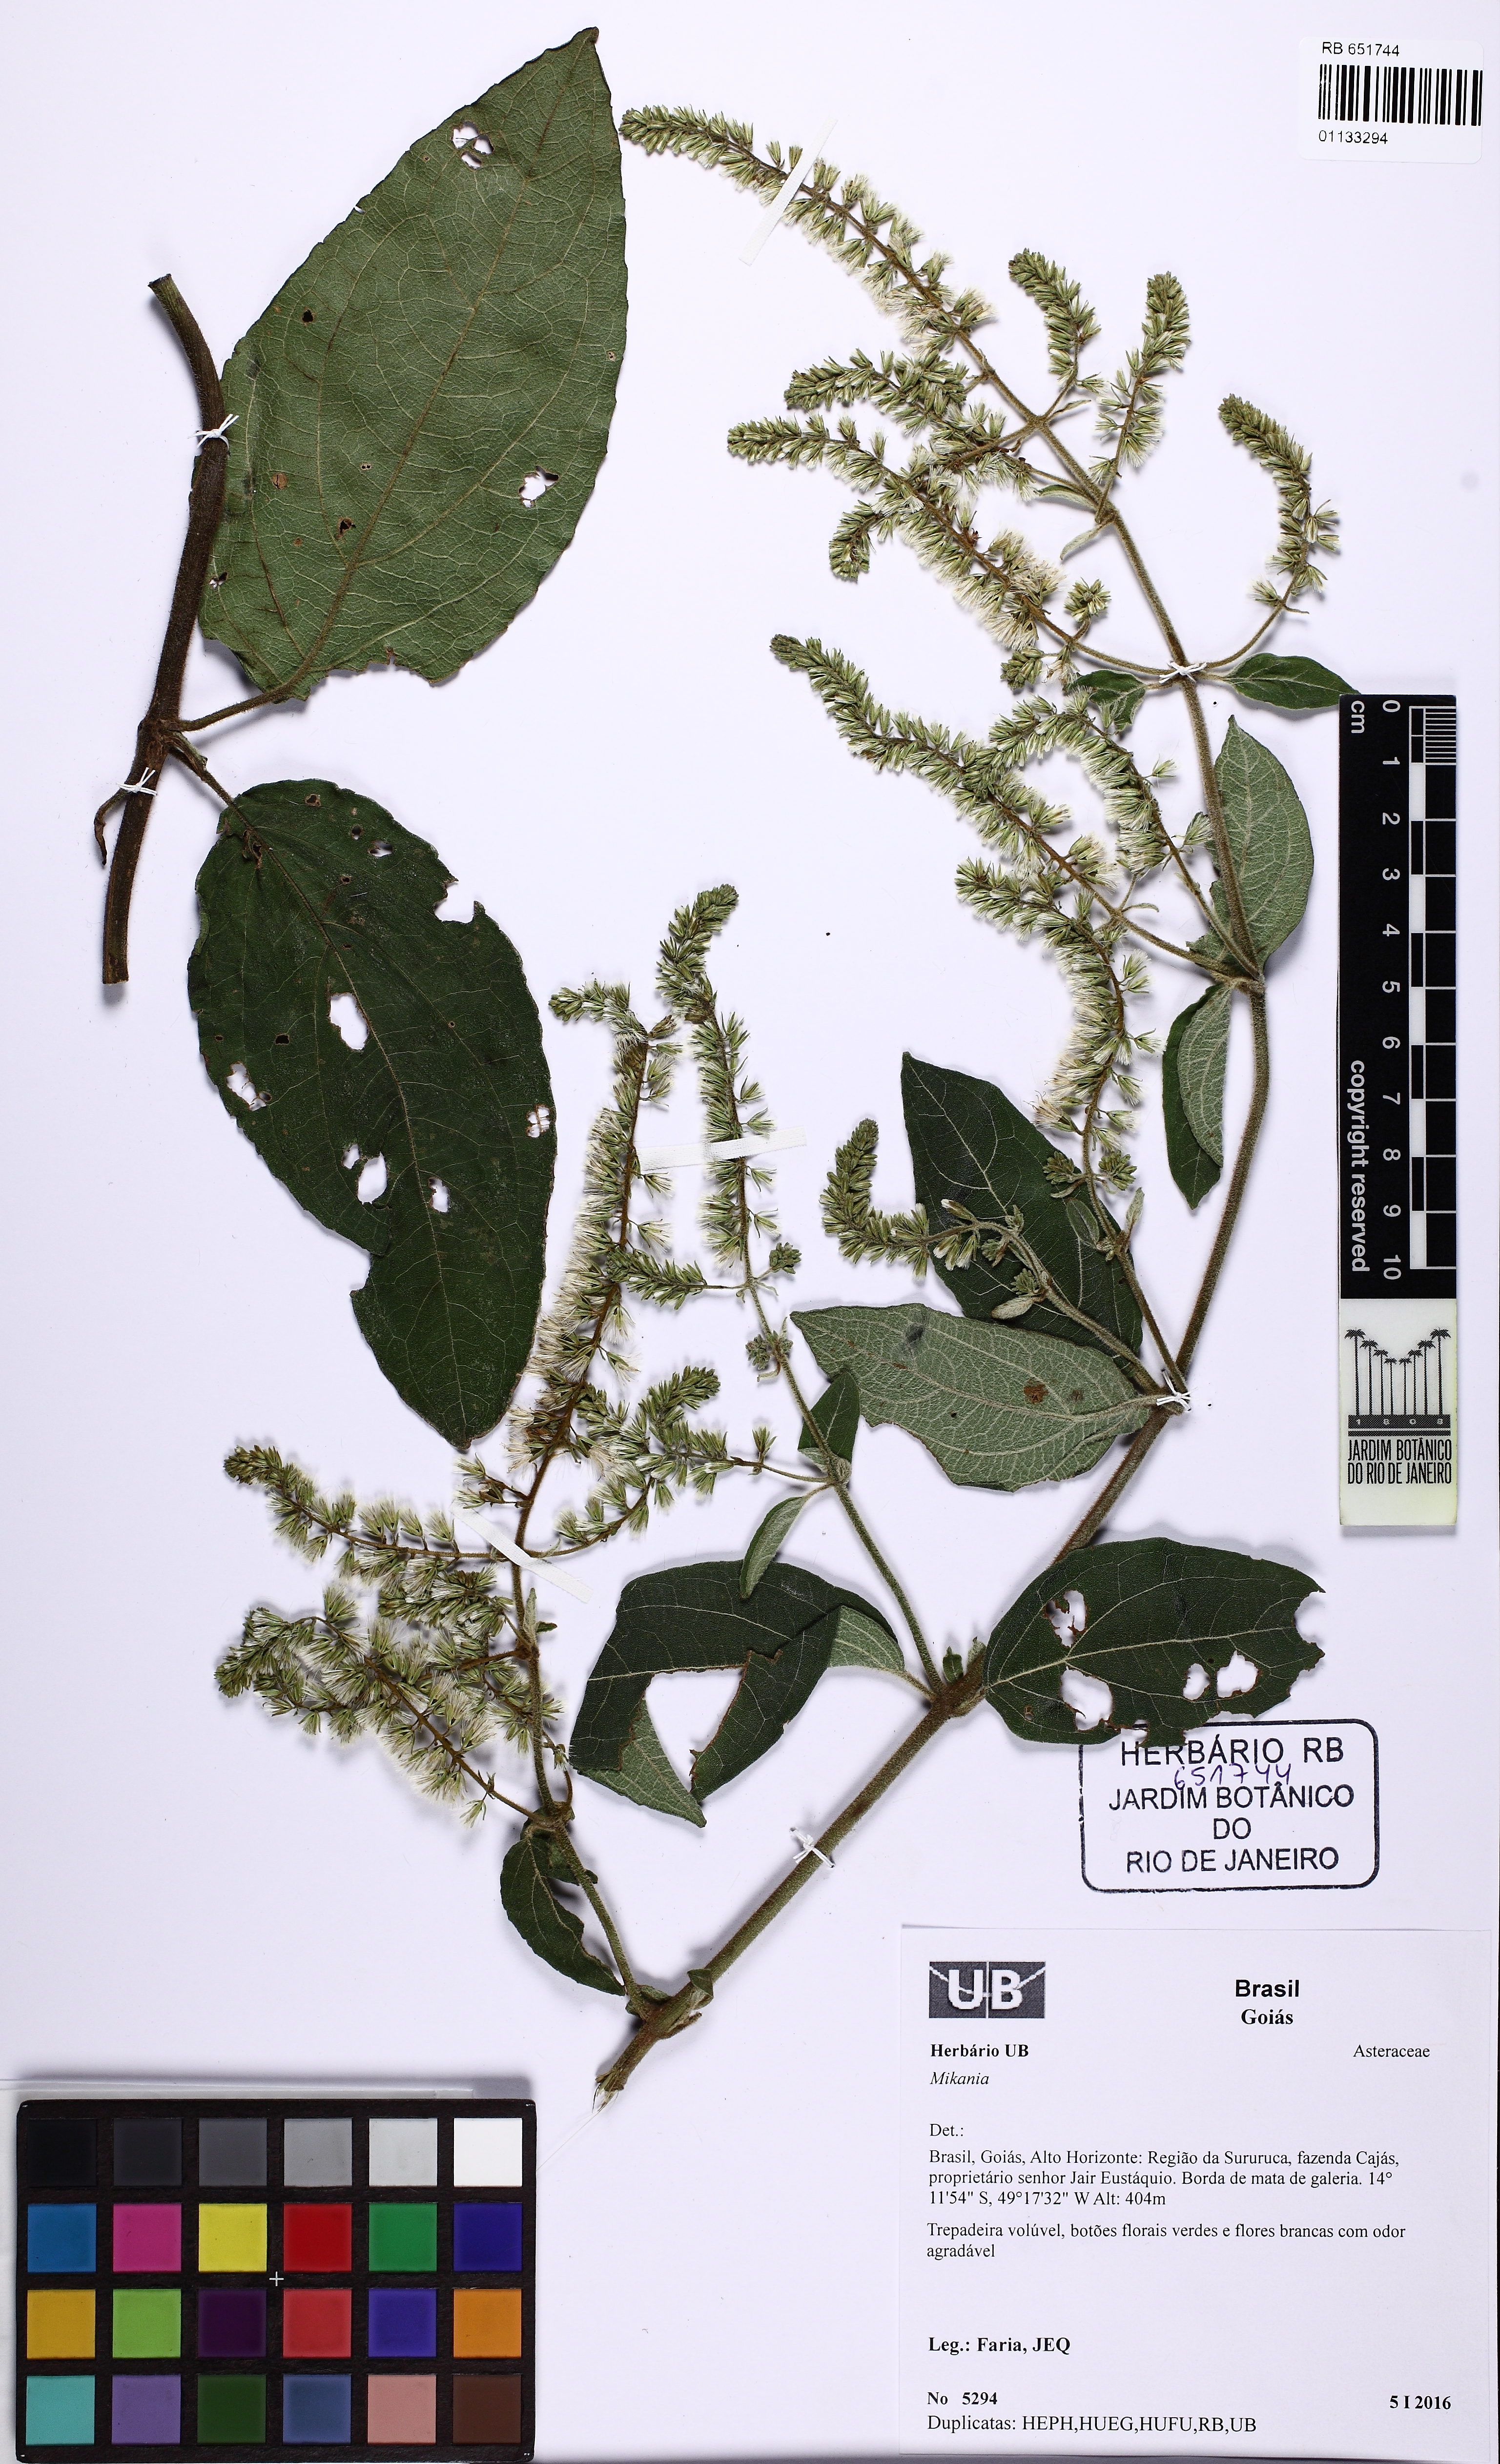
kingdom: Plantae
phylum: Tracheophyta
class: Magnoliopsida
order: Asterales
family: Asteraceae
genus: Mikania
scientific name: Mikania psilostachya
